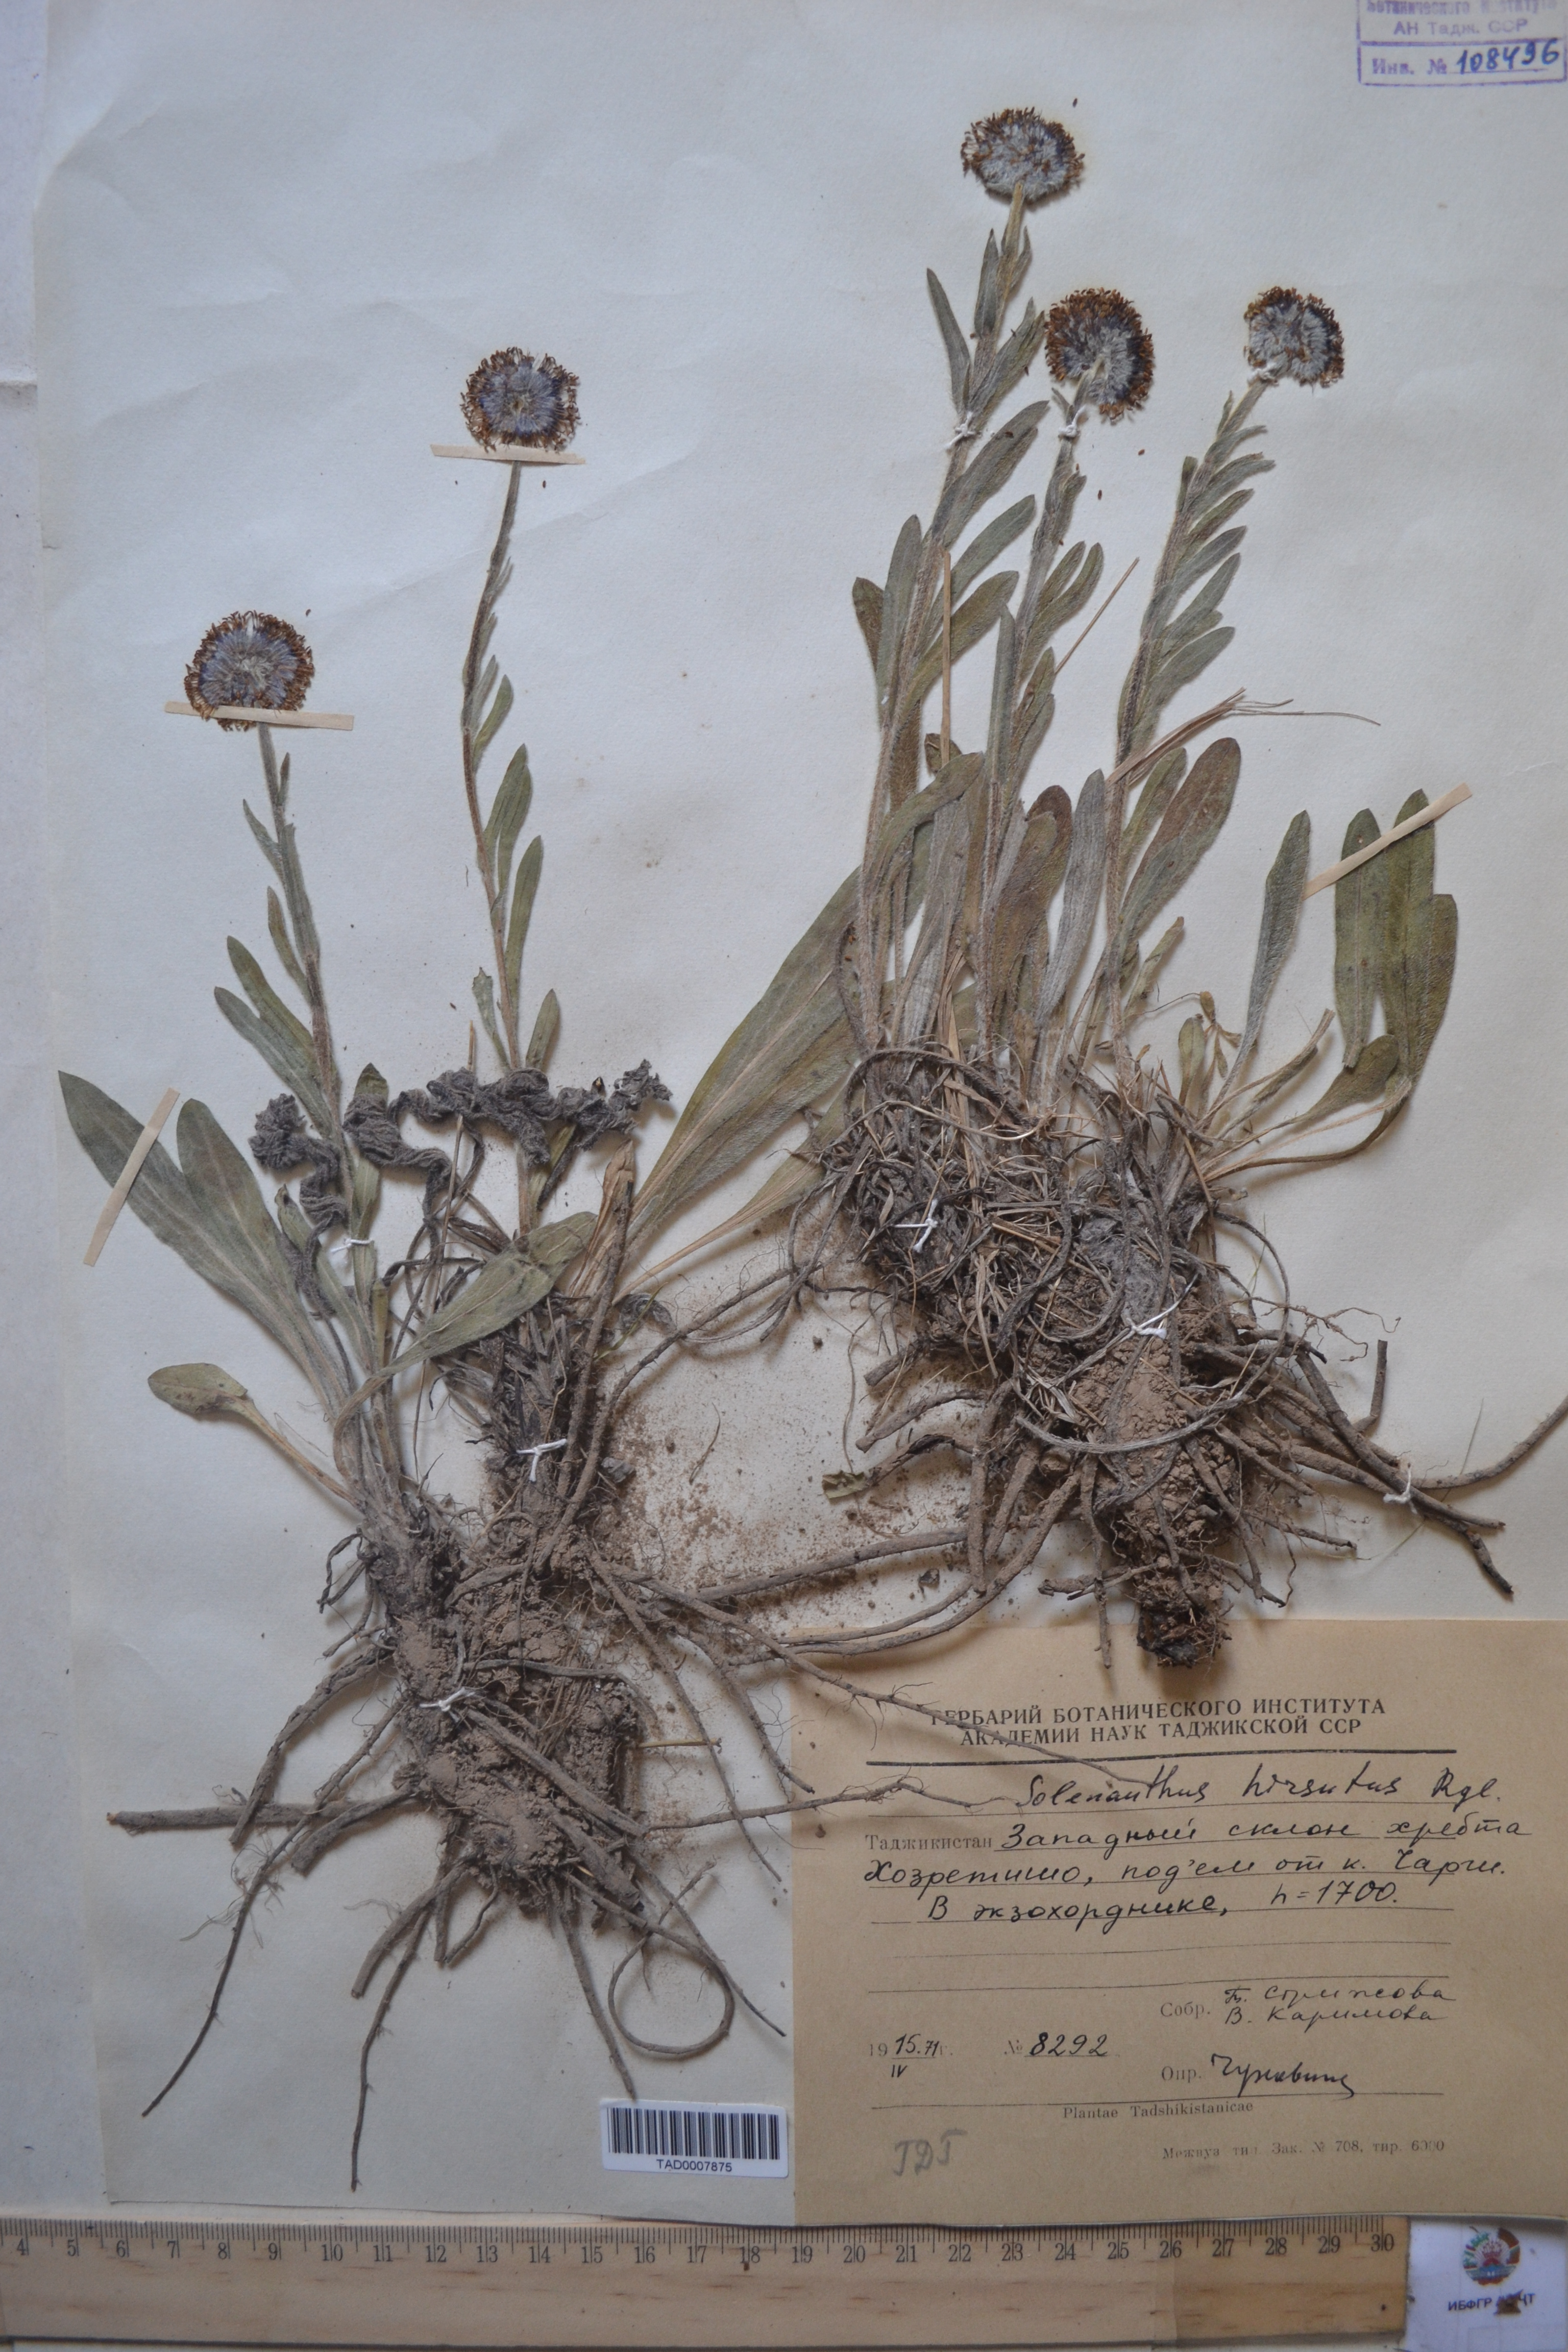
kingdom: Plantae
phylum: Tracheophyta
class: Magnoliopsida
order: Boraginales
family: Boraginaceae
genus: Solenanthus
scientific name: Solenanthus hirsutus
